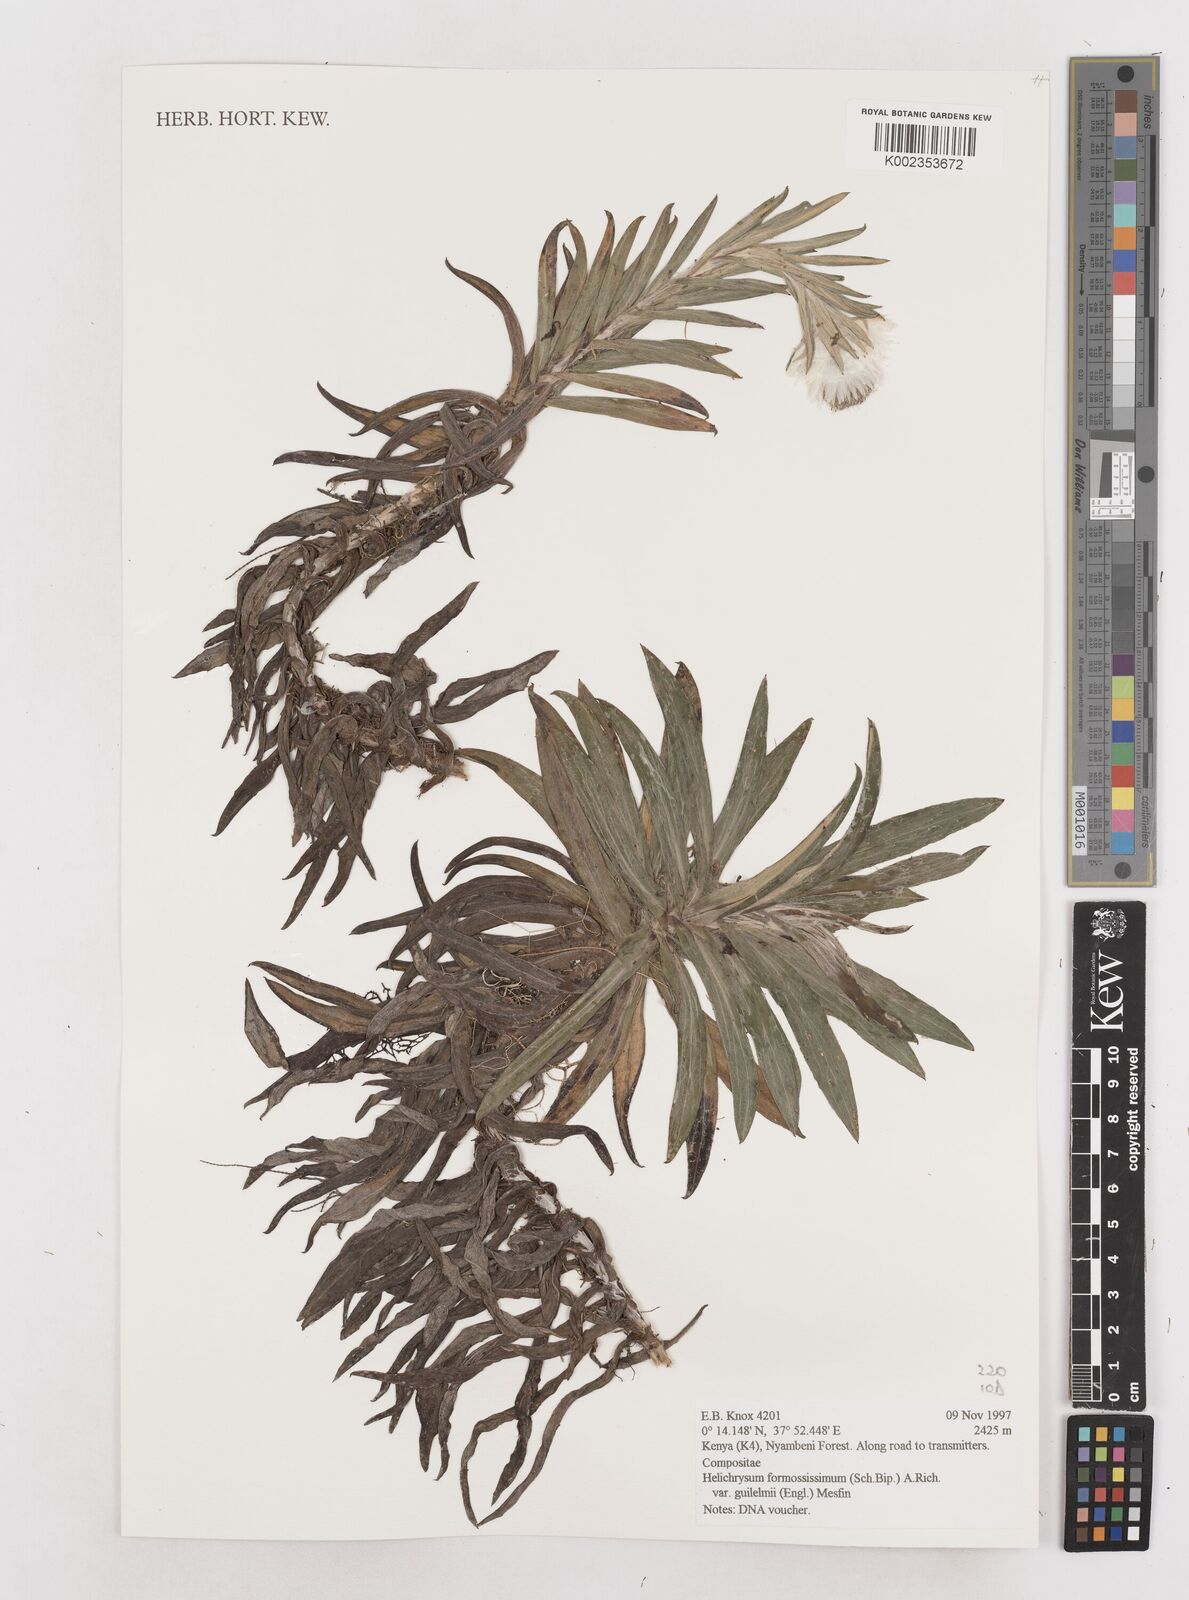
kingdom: Plantae
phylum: Tracheophyta
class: Magnoliopsida
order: Asterales
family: Asteraceae
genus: Helichrysum
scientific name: Helichrysum formosissimum
